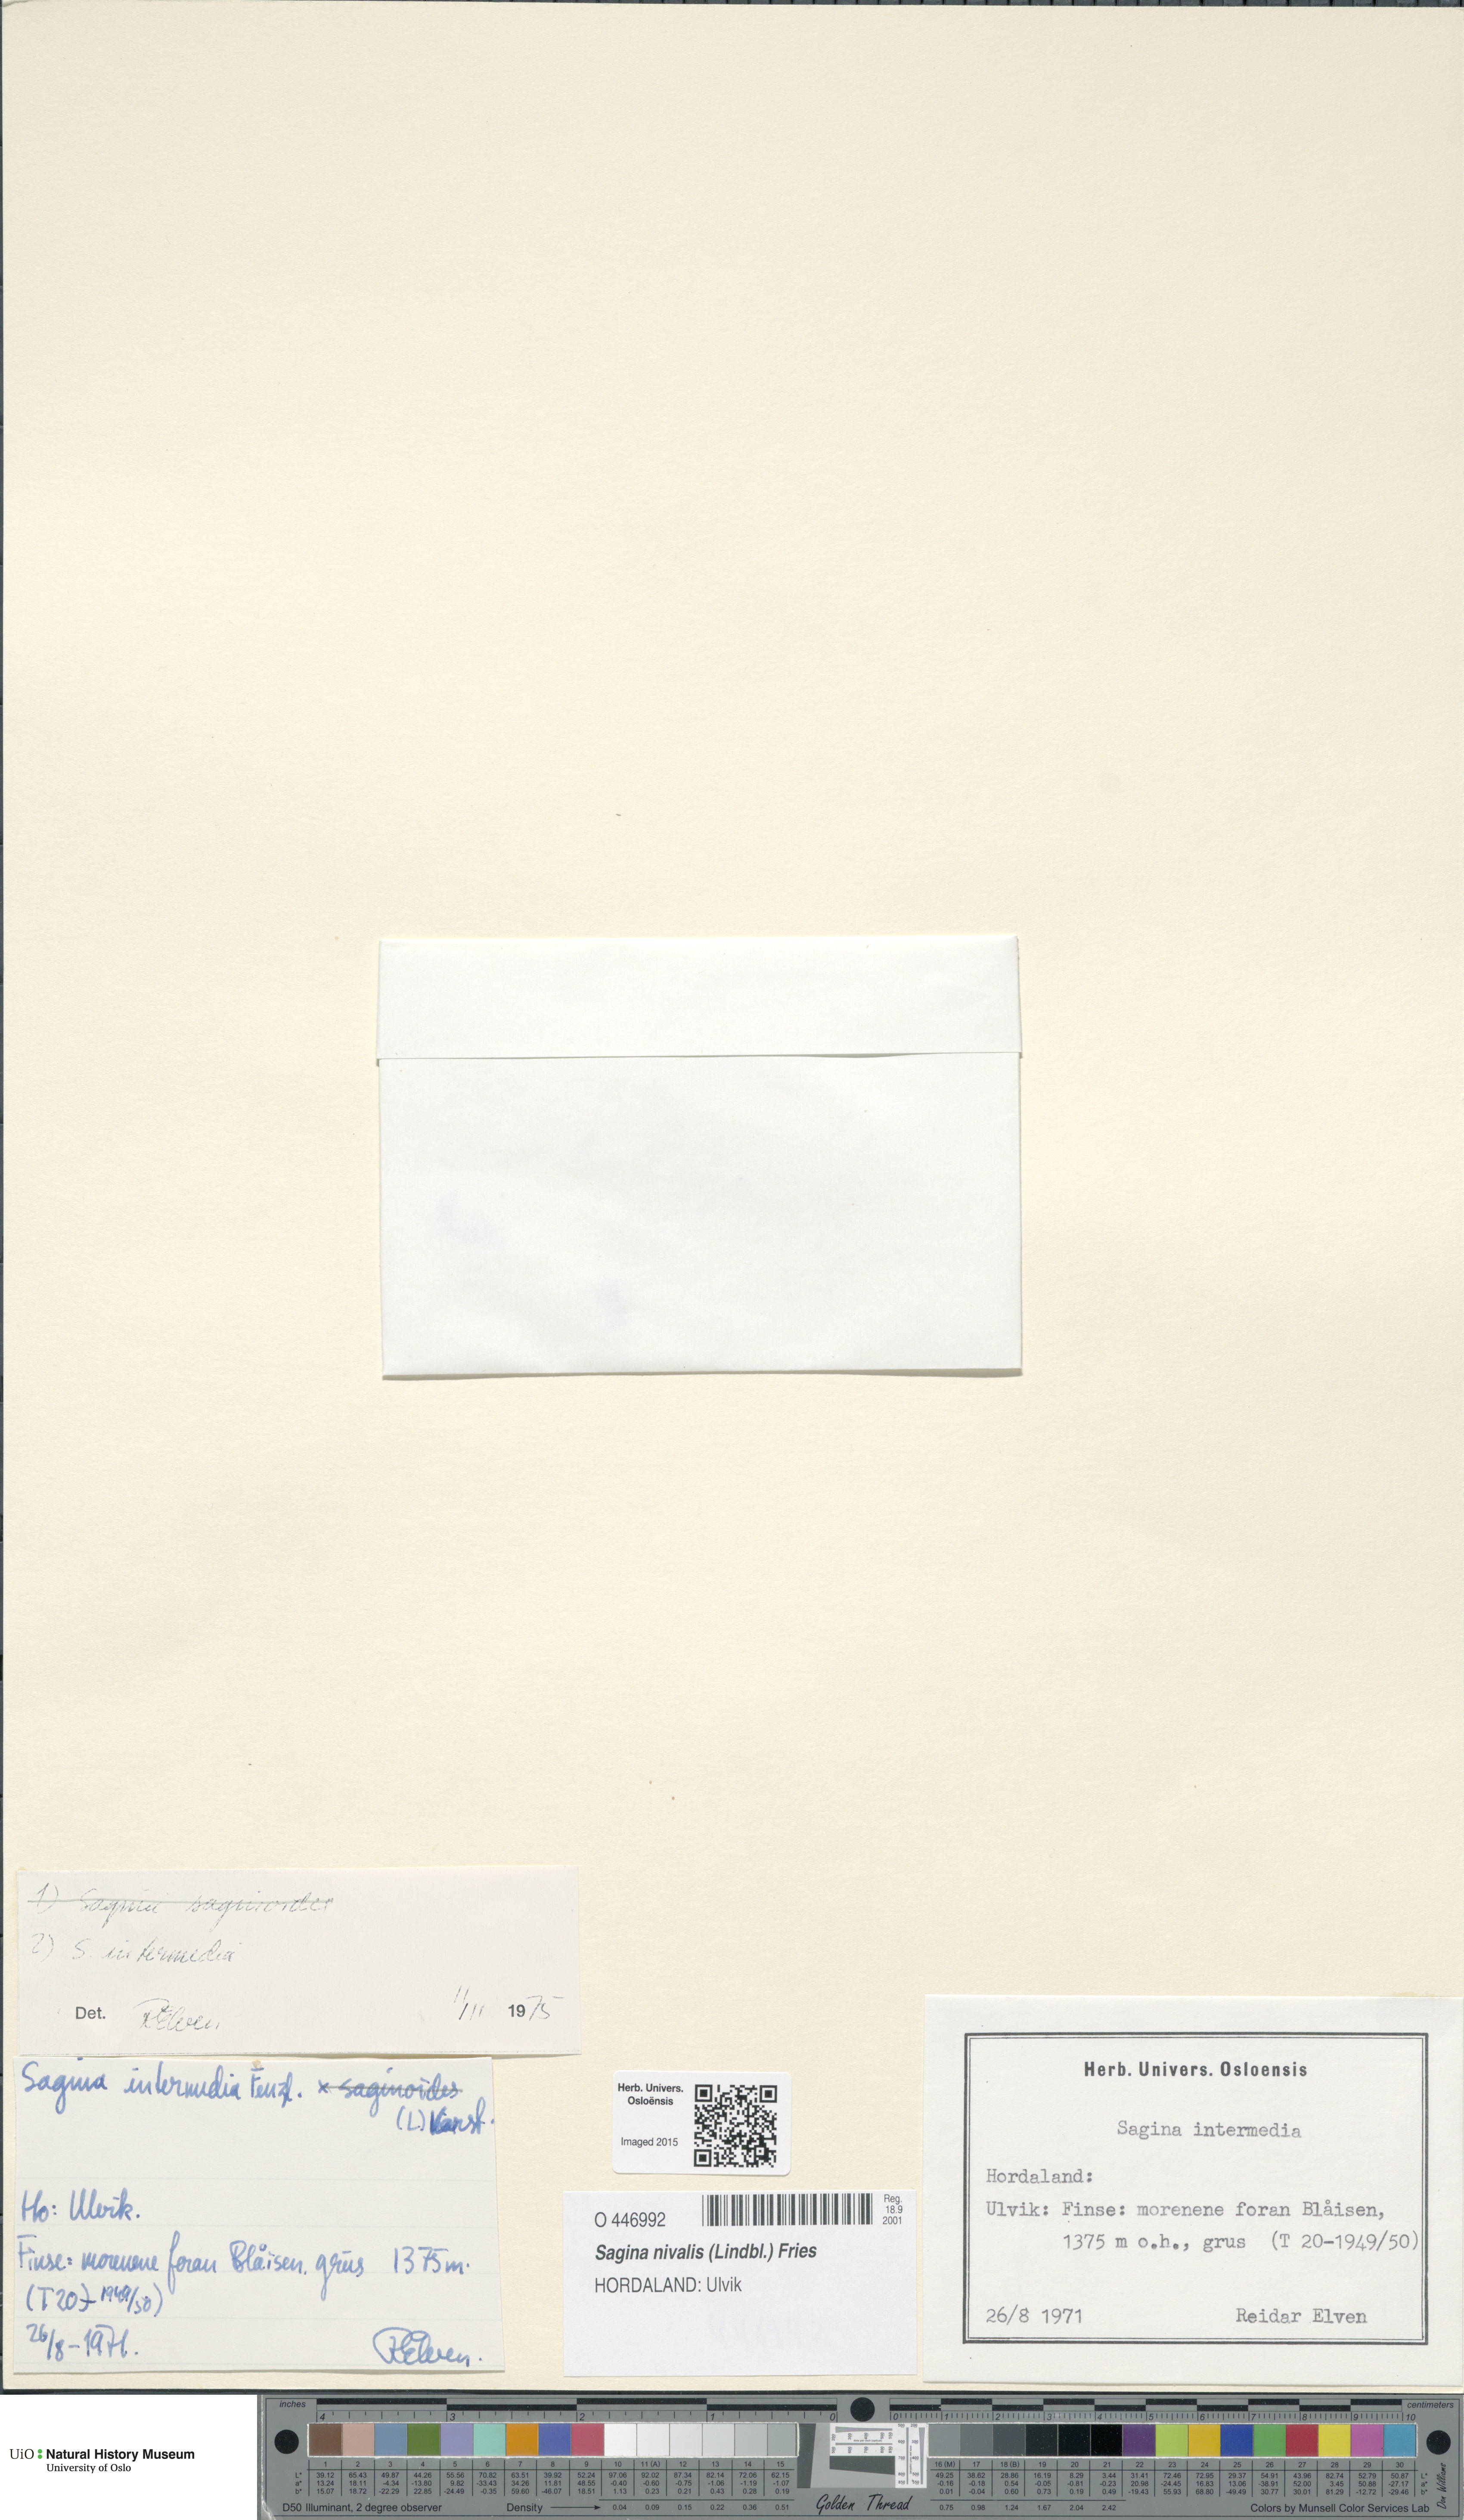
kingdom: Plantae
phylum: Tracheophyta
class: Magnoliopsida
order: Caryophyllales
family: Caryophyllaceae
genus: Sagina
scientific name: Sagina nivalis
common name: Snow pearlwort
